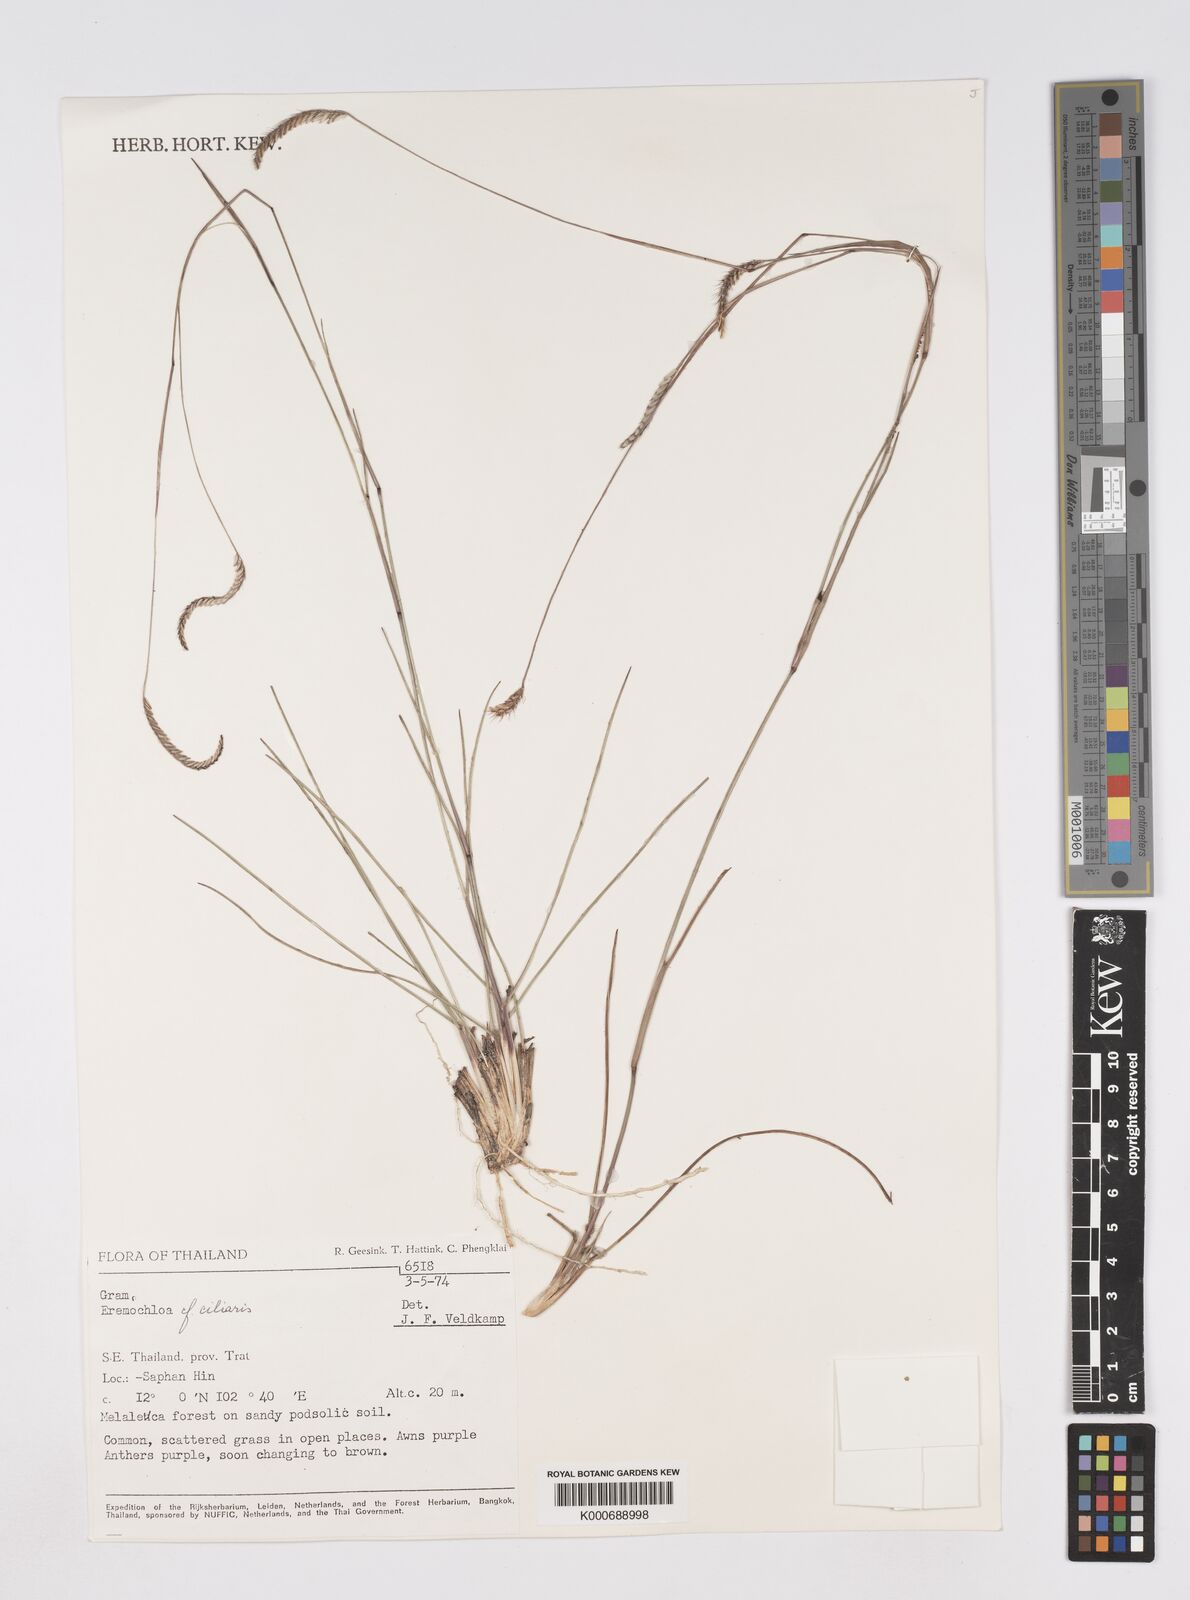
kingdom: Plantae
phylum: Tracheophyta
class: Liliopsida
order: Poales
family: Poaceae
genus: Eremochloa
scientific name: Eremochloa ciliaris
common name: Fringed centipede grass
